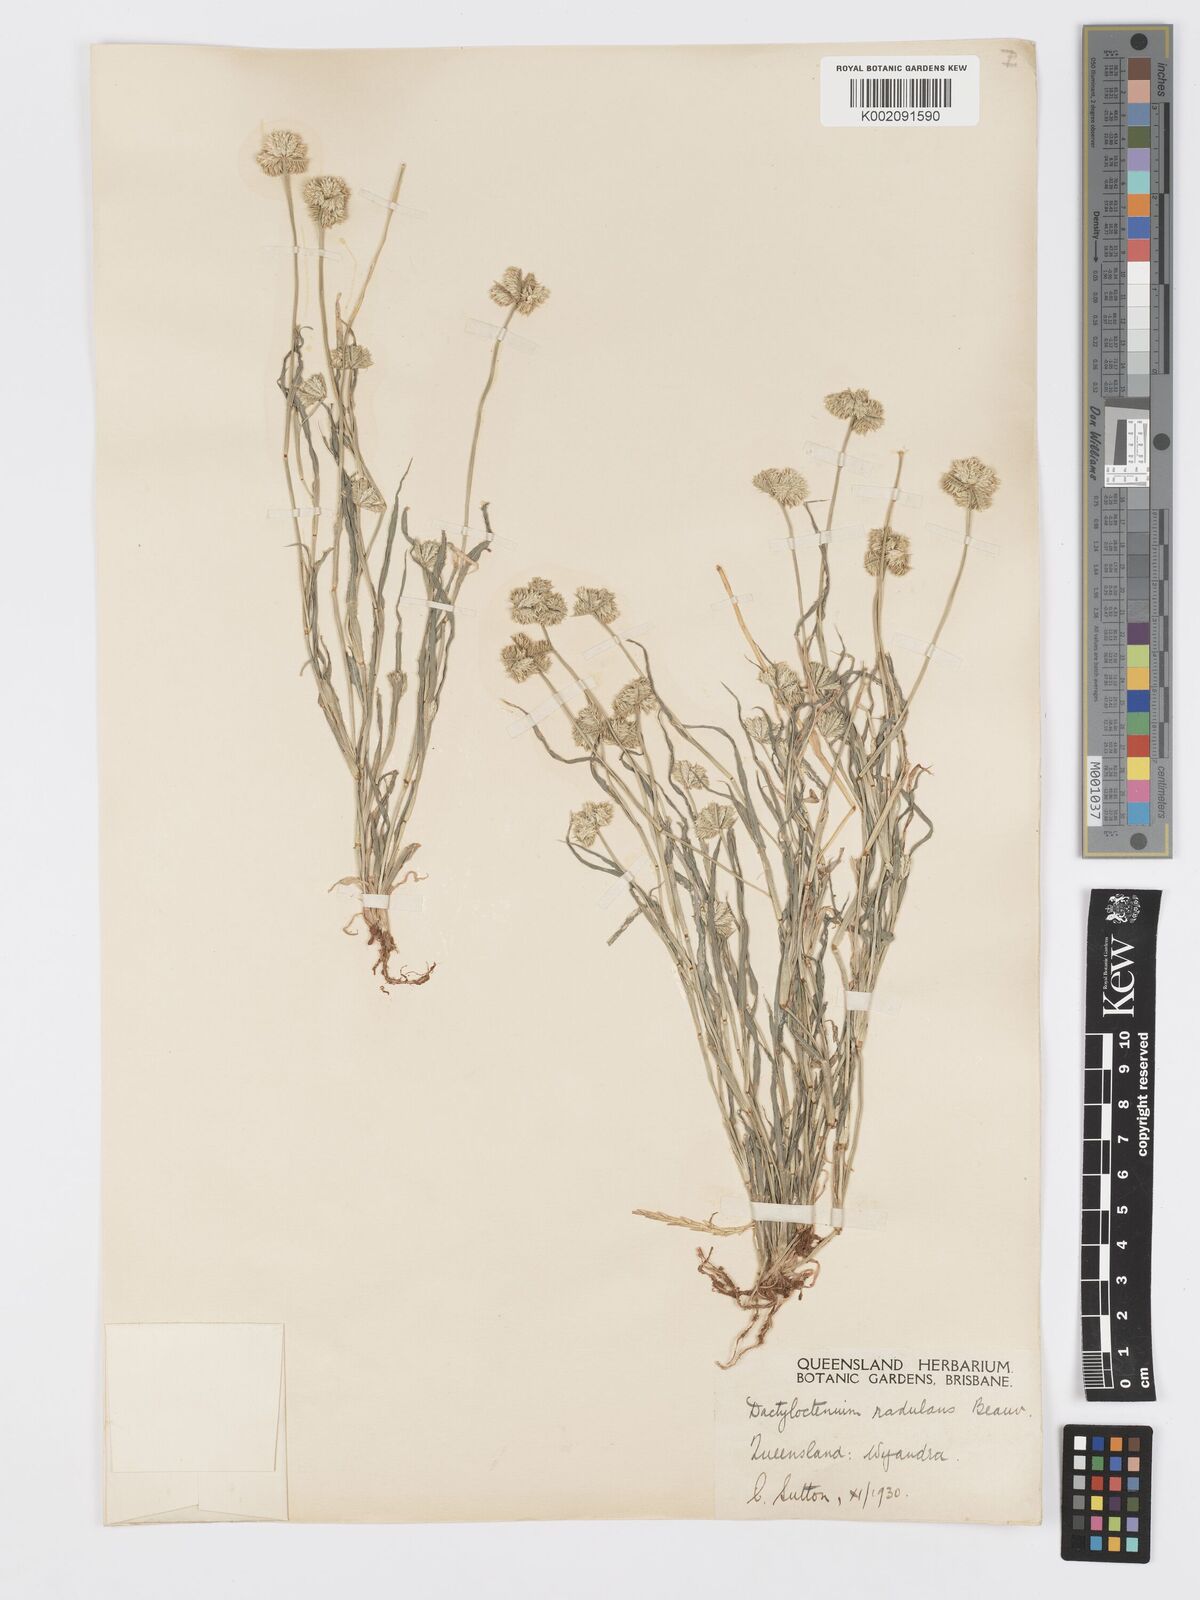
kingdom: Plantae
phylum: Tracheophyta
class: Liliopsida
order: Poales
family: Poaceae
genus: Dactyloctenium
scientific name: Dactyloctenium radulans
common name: Button-grass
